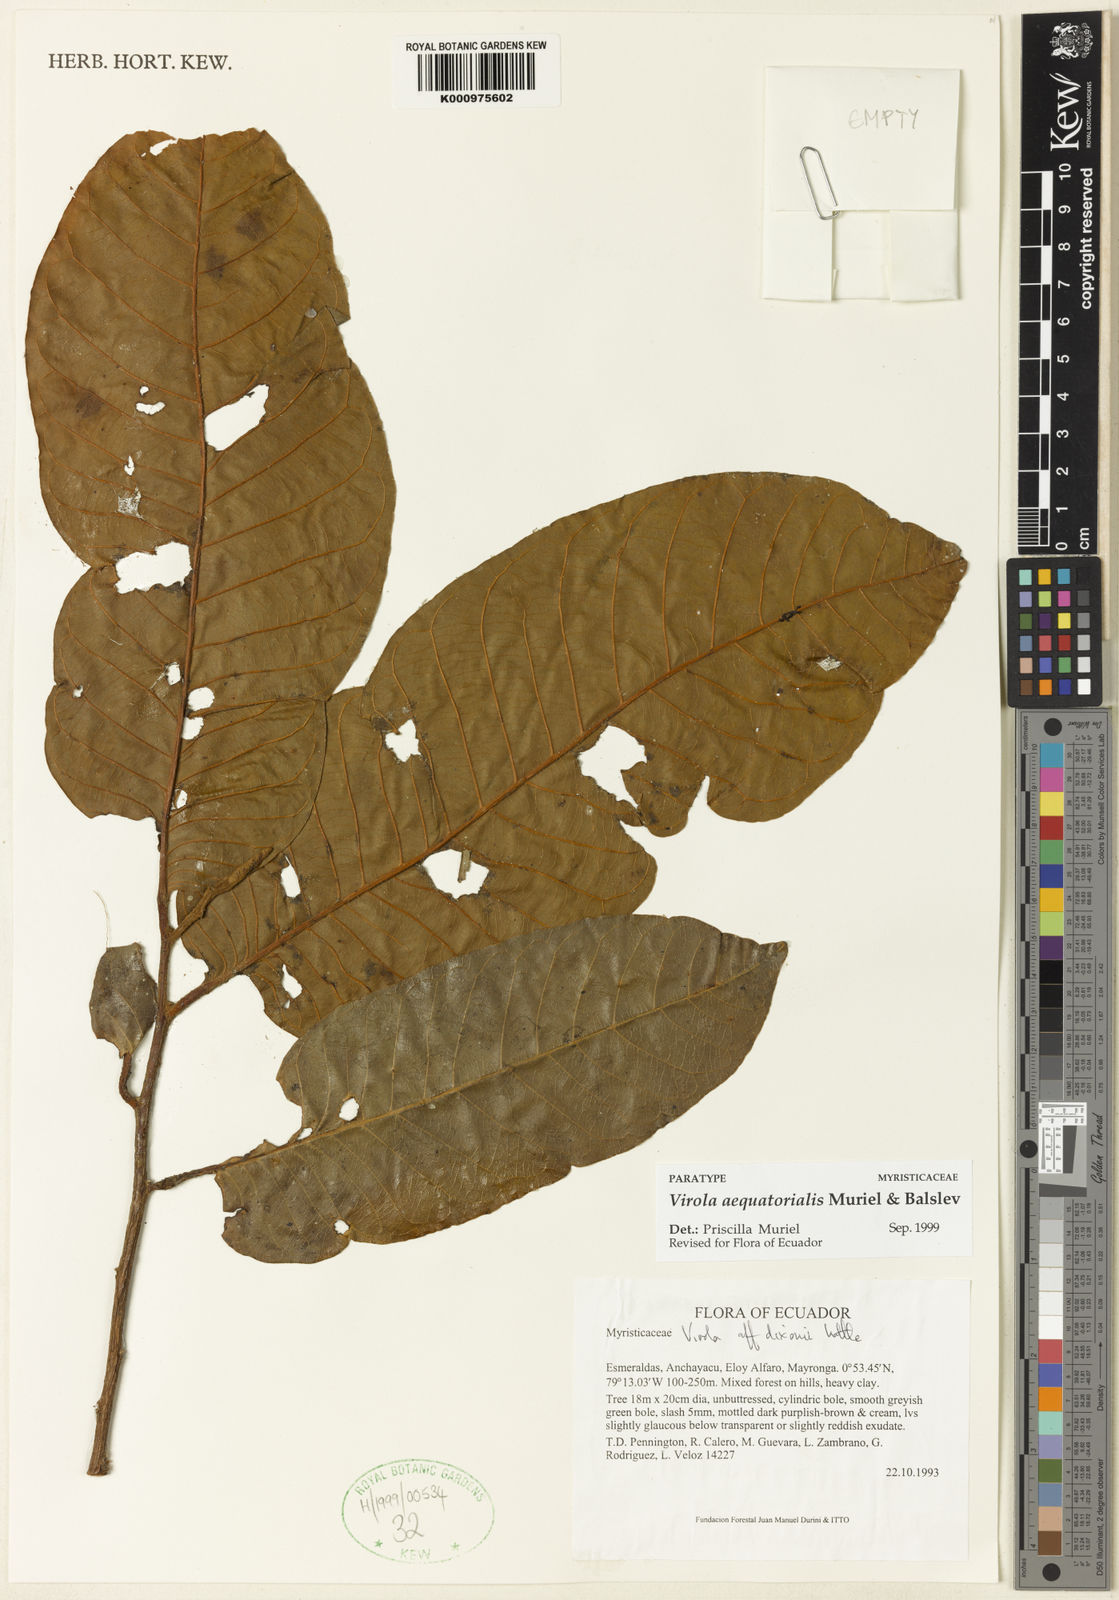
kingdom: Plantae
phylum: Tracheophyta
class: Magnoliopsida
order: Magnoliales
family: Myristicaceae
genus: Virola
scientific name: Virola aequatorialis
